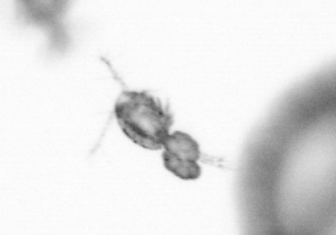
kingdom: Animalia
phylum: Arthropoda
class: Copepoda
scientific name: Copepoda
